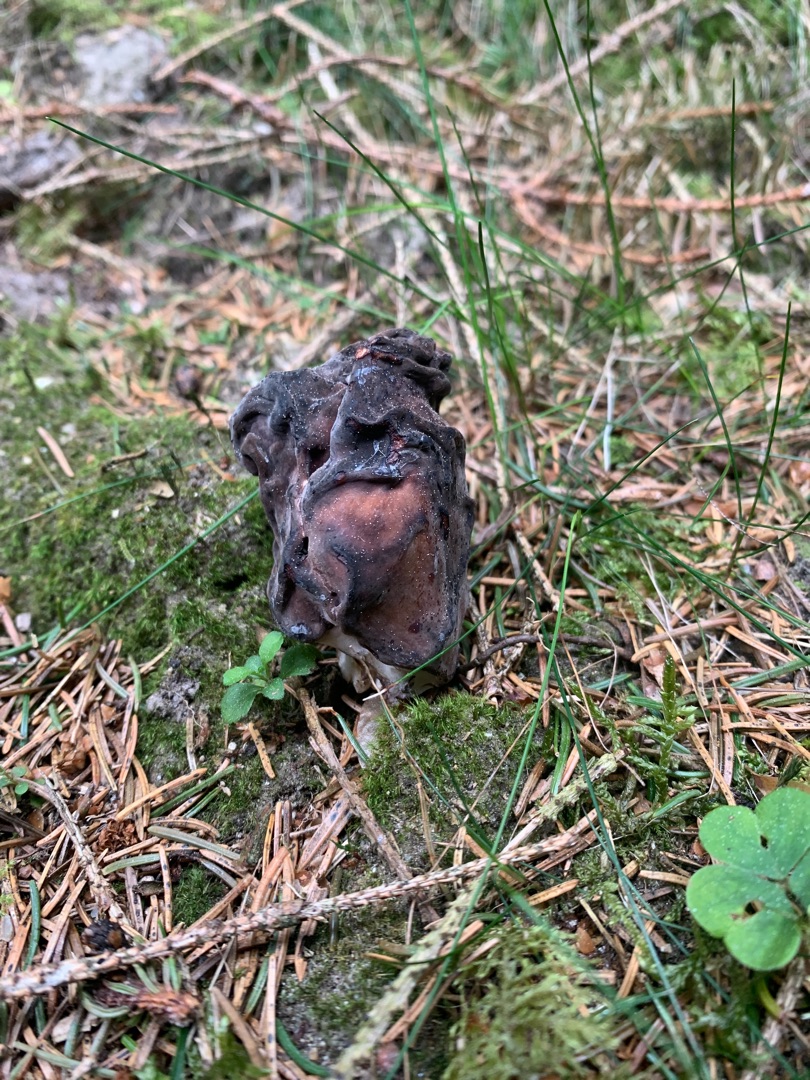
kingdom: Fungi
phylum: Ascomycota
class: Pezizomycetes
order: Pezizales
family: Discinaceae
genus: Gyromitra
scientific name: Gyromitra esculenta
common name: Ægte stenmorkel
